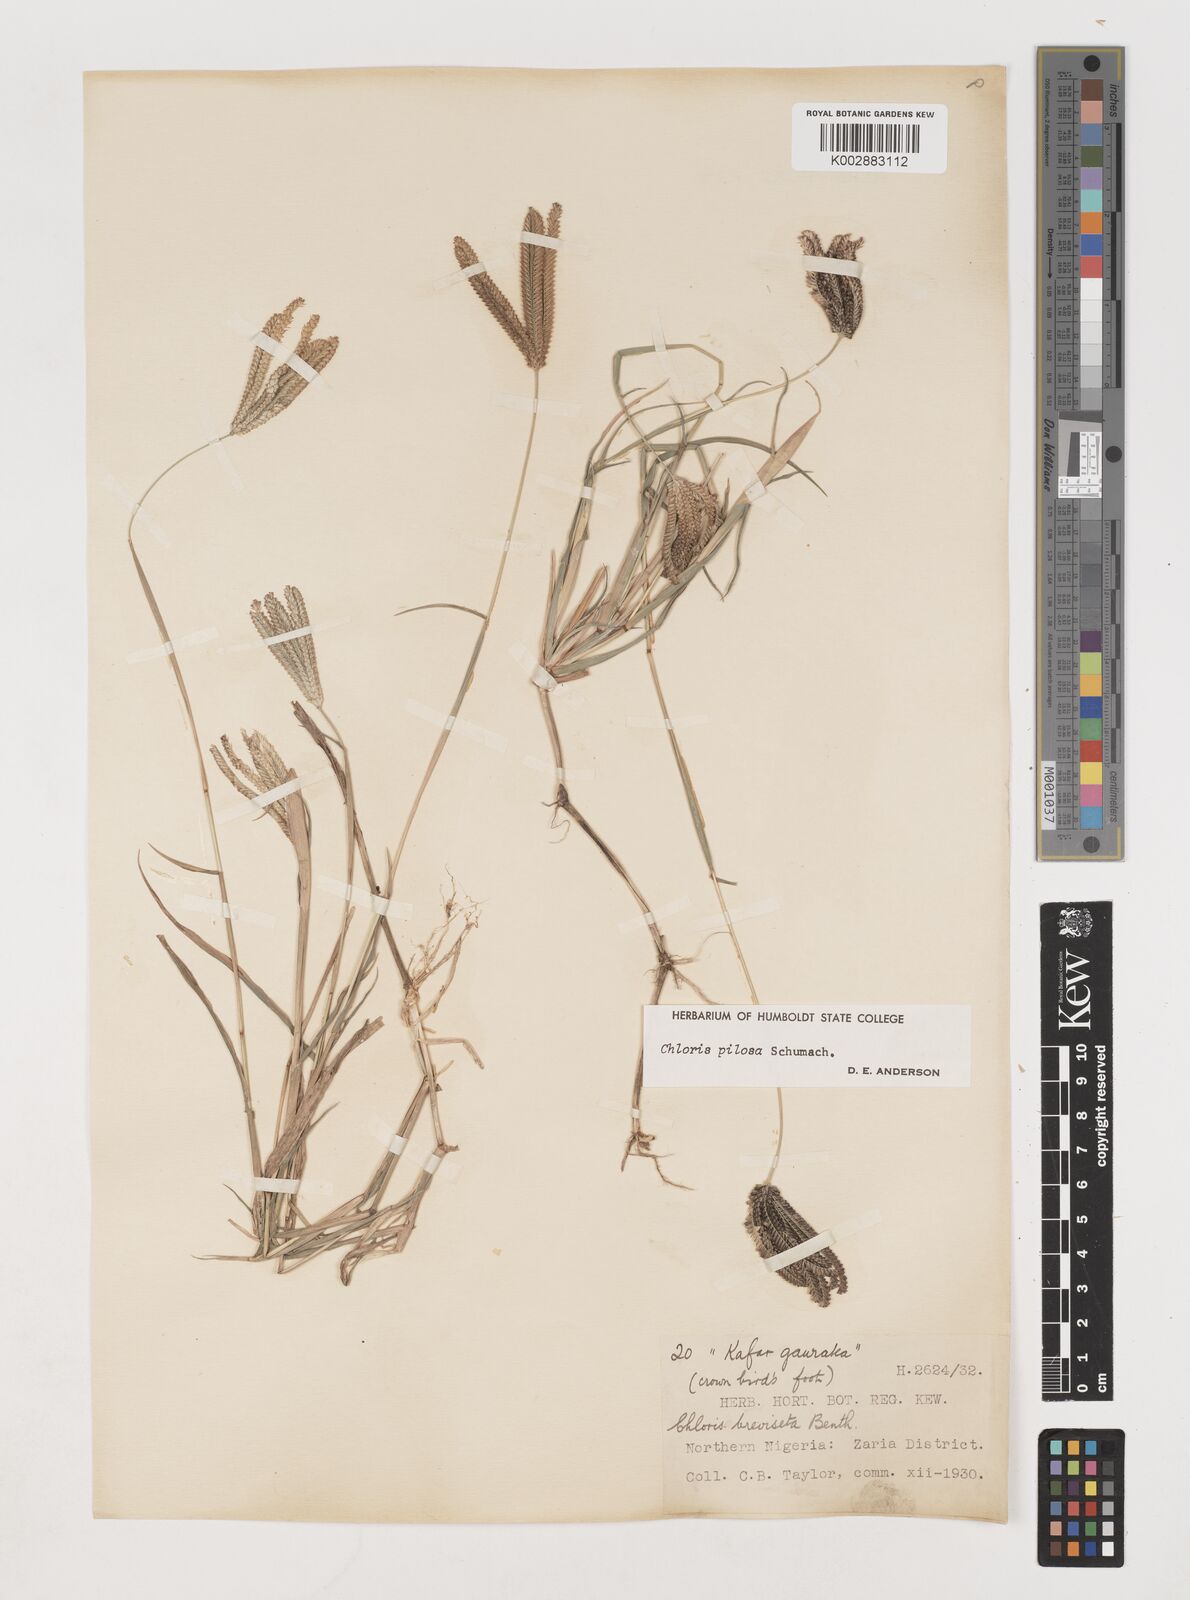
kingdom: Plantae
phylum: Tracheophyta
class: Liliopsida
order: Poales
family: Poaceae
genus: Chloris
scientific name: Chloris pilosa
